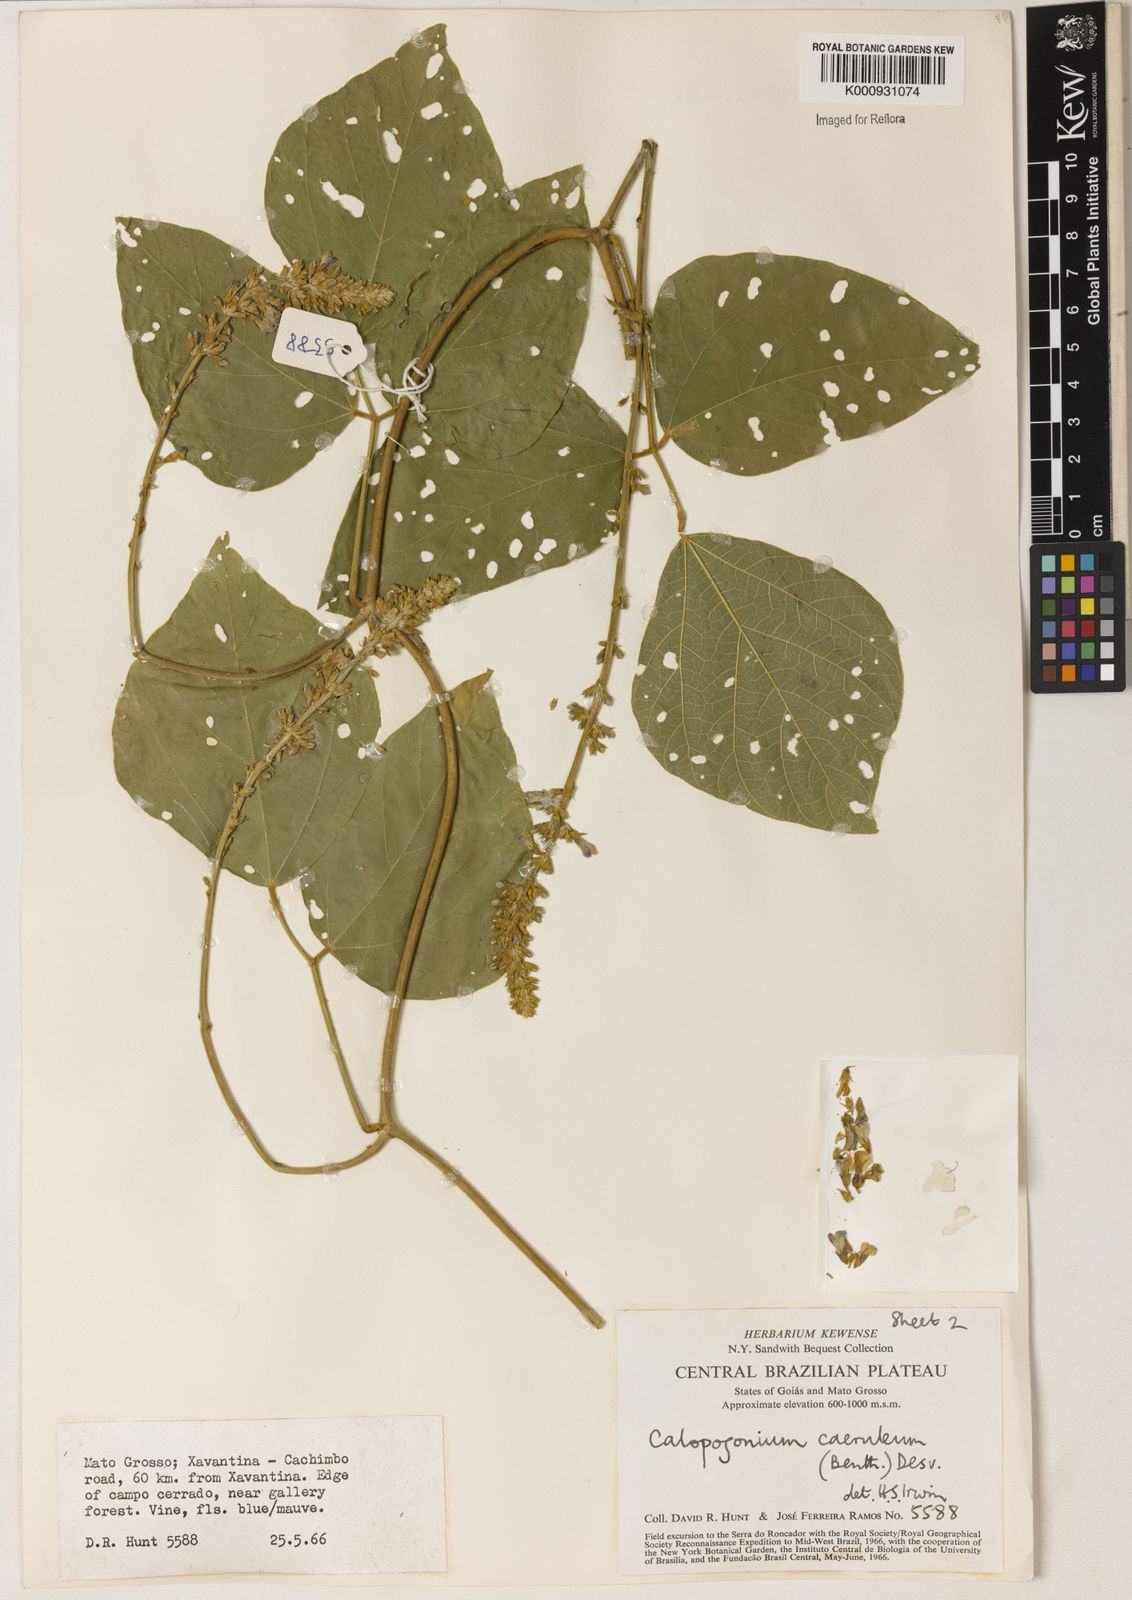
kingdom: Plantae
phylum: Tracheophyta
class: Magnoliopsida
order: Fabales
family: Fabaceae
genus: Calopogonium
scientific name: Calopogonium caeruleum
